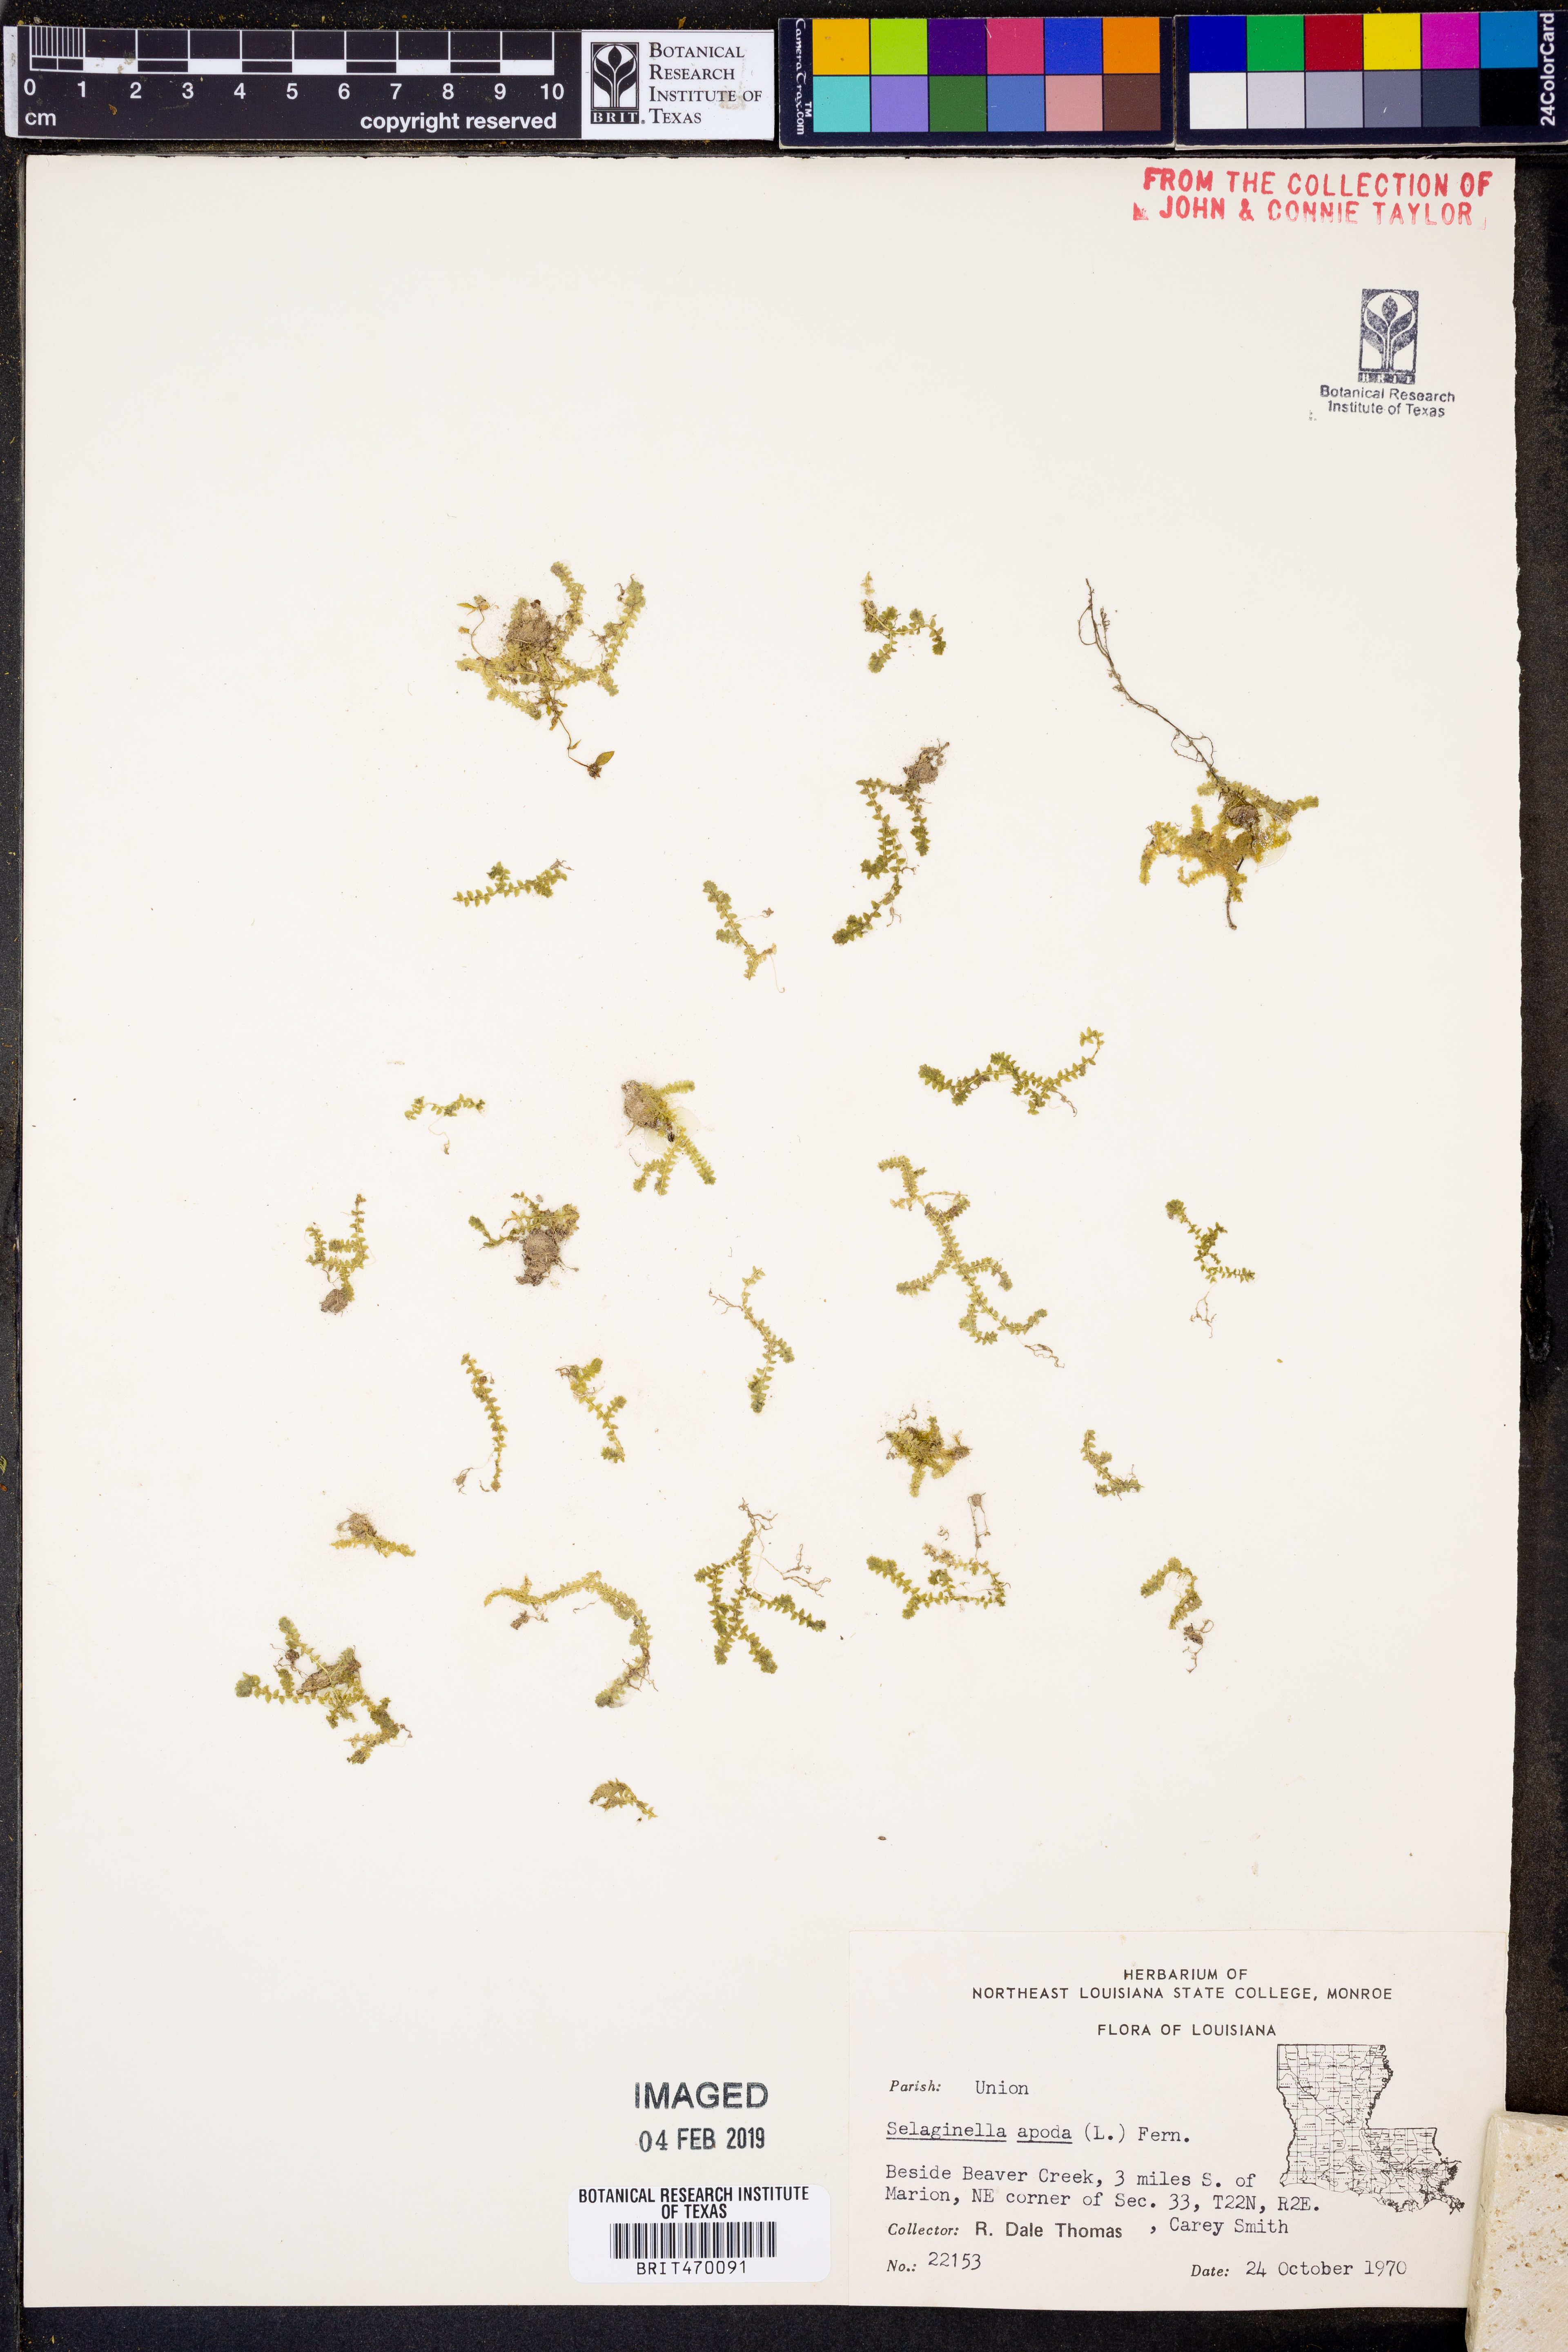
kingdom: Plantae
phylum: Tracheophyta
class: Lycopodiopsida
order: Selaginellales
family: Selaginellaceae
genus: Selaginella
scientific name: Selaginella apoda
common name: Creeping spikemoss
